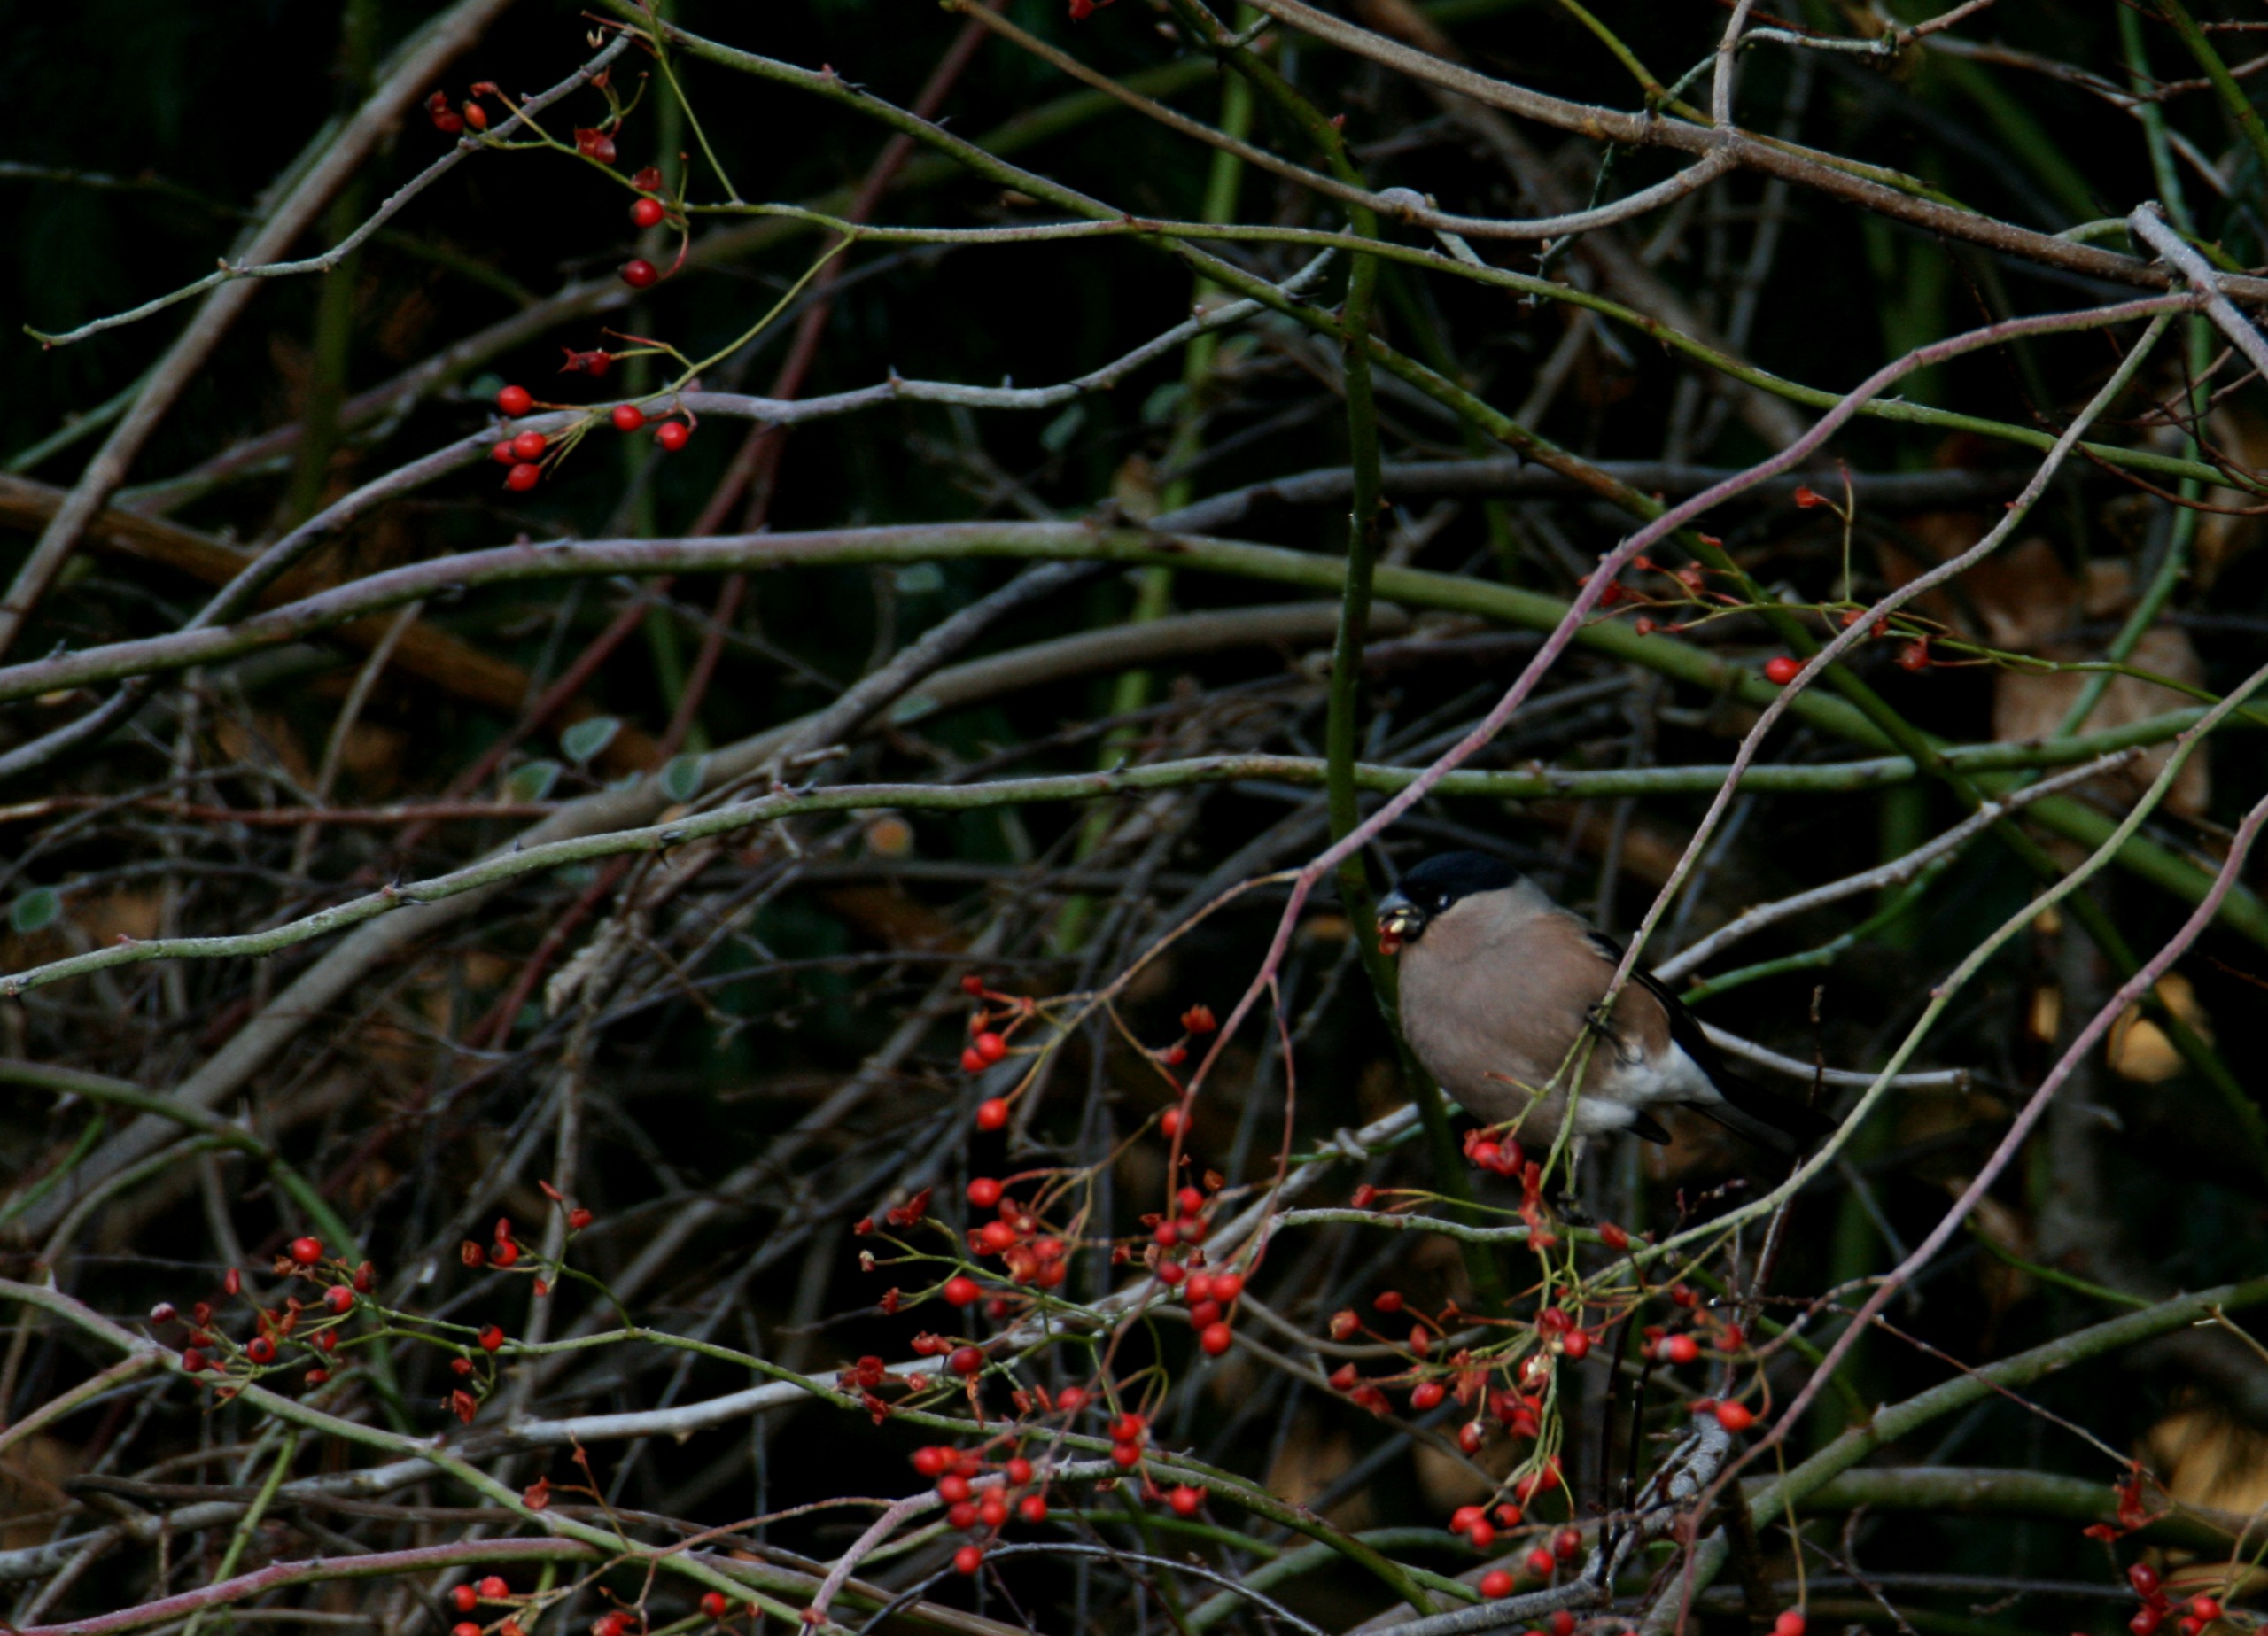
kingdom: Animalia
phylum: Chordata
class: Aves
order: Passeriformes
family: Fringillidae
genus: Pyrrhula
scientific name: Pyrrhula pyrrhula
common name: Dompap
